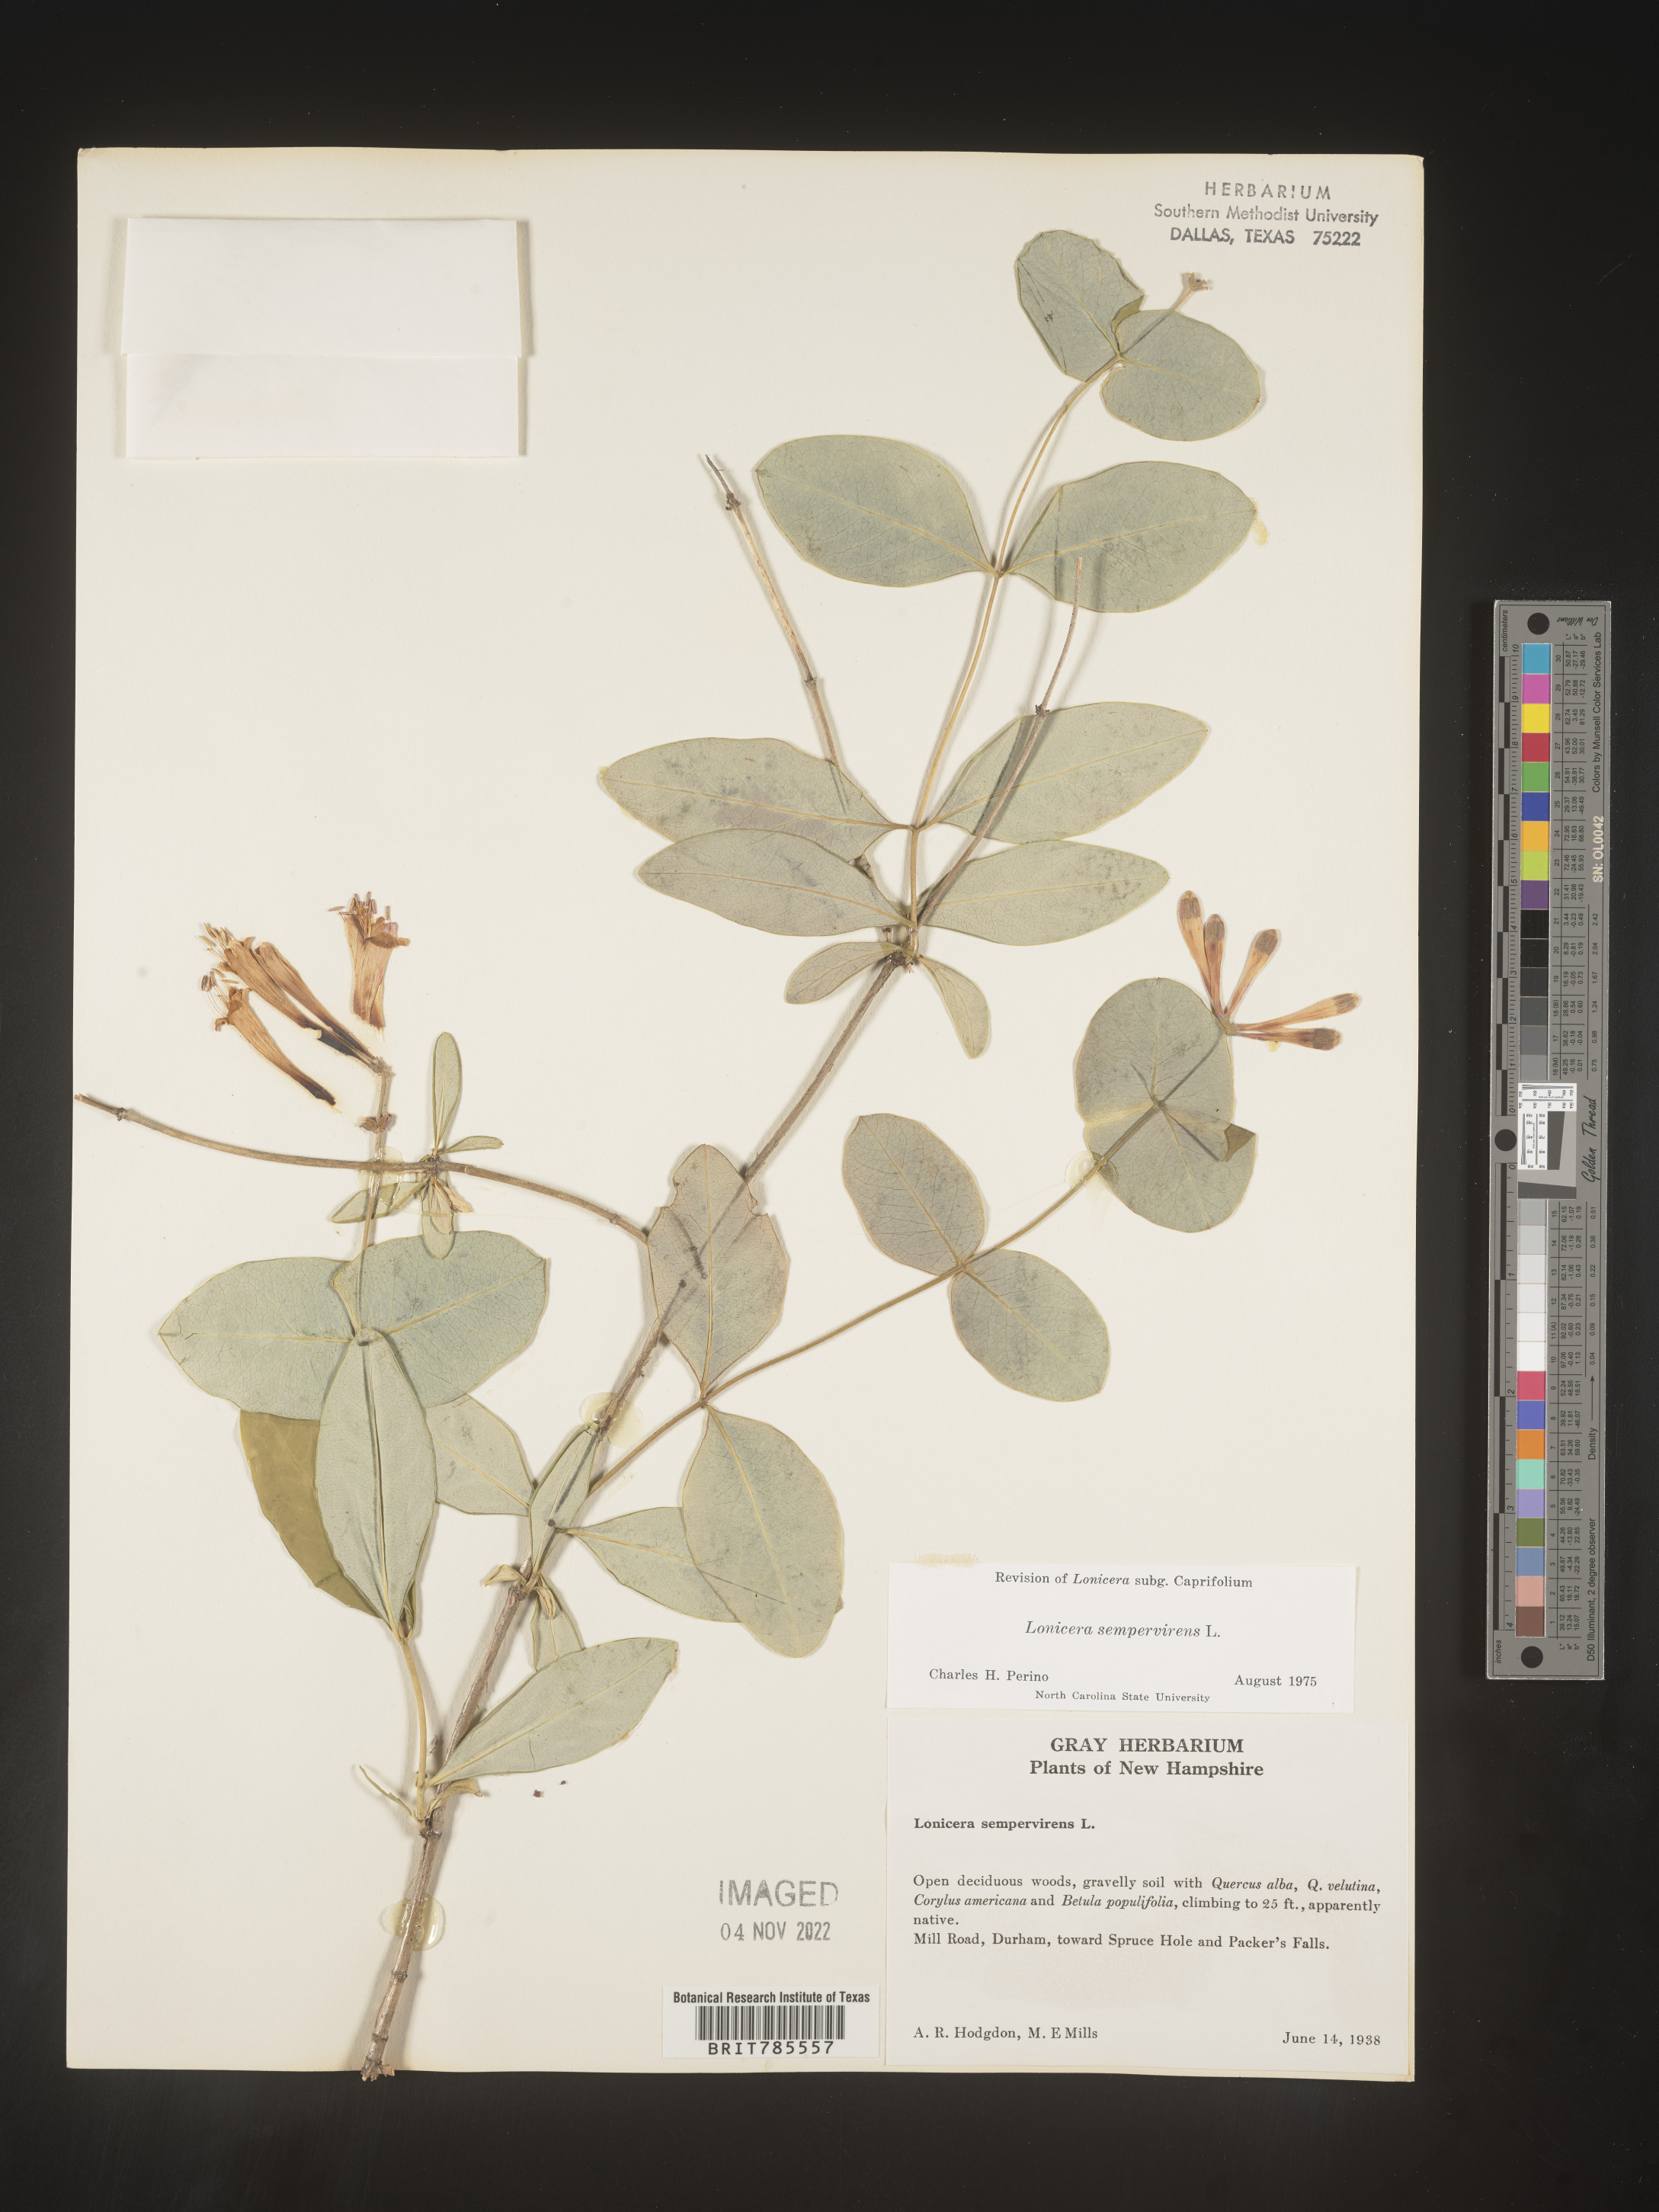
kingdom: Plantae
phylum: Tracheophyta
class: Magnoliopsida
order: Dipsacales
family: Caprifoliaceae
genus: Lonicera
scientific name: Lonicera sempervirens
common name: Coral honeysuckle
